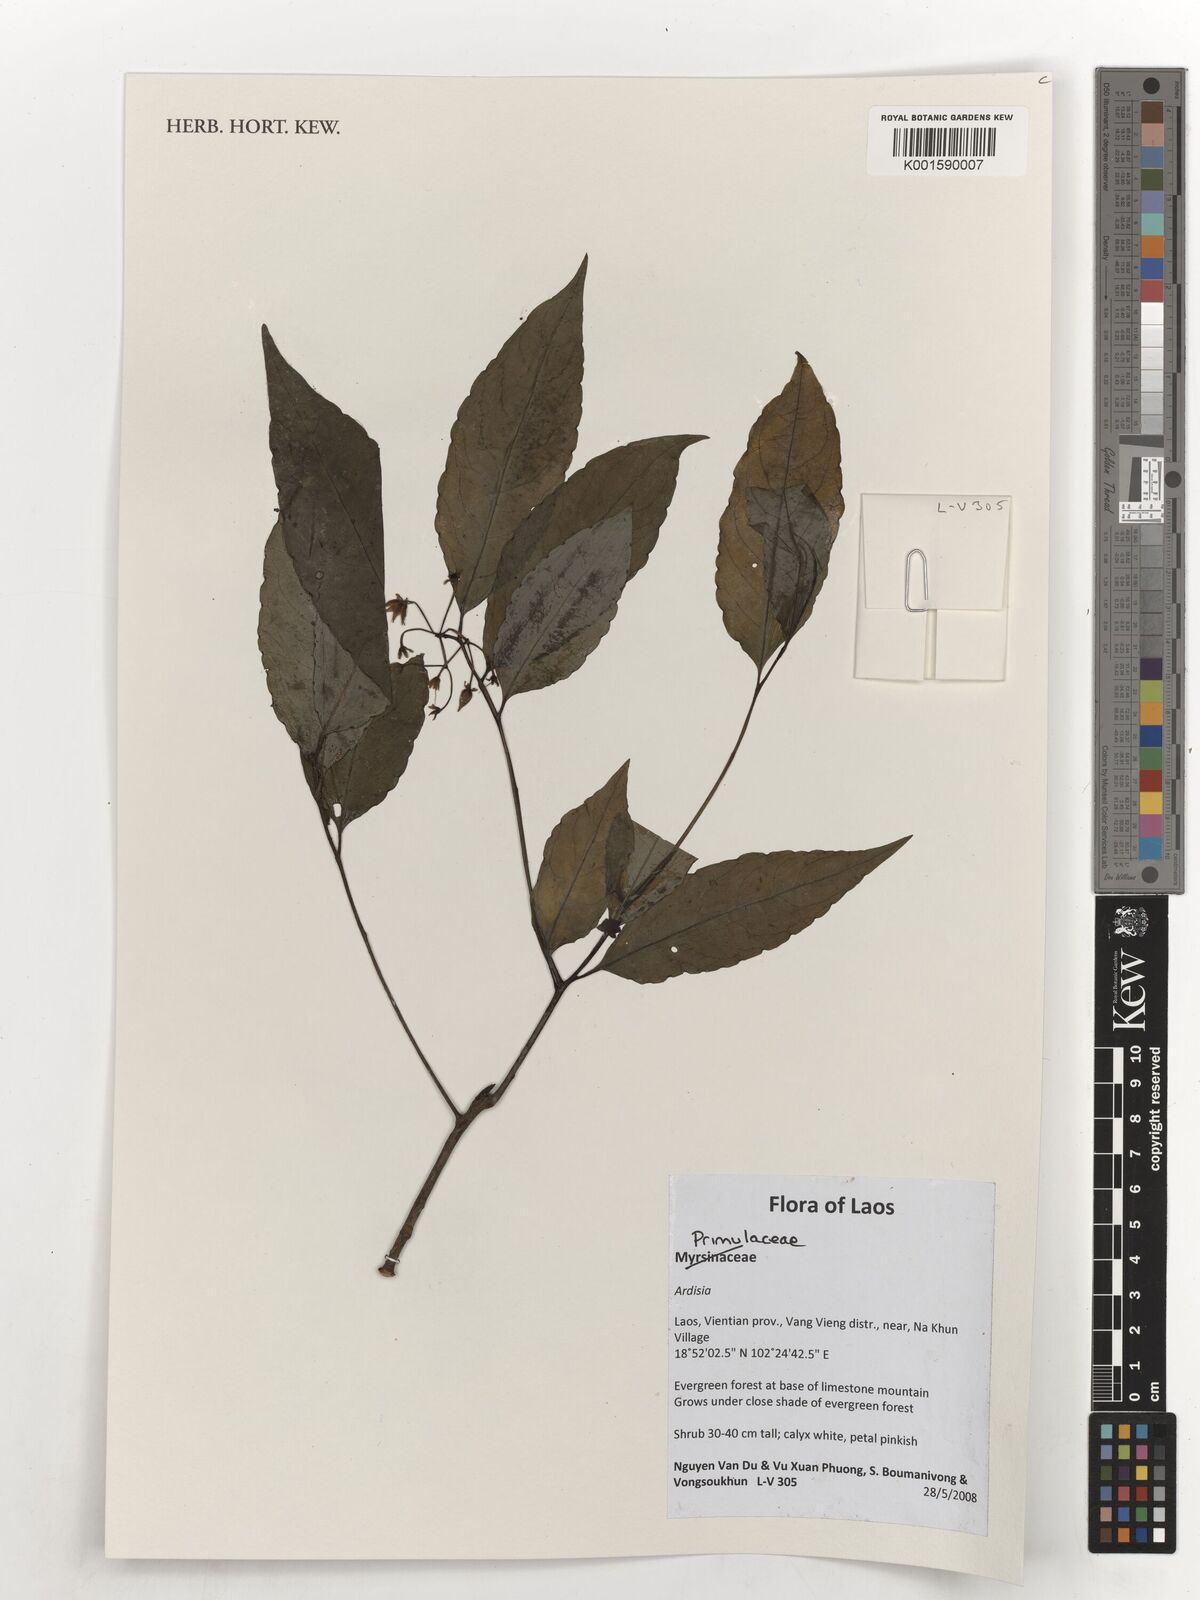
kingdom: Plantae
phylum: Tracheophyta
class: Magnoliopsida
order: Ericales
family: Primulaceae
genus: Ardisia
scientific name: Ardisia
